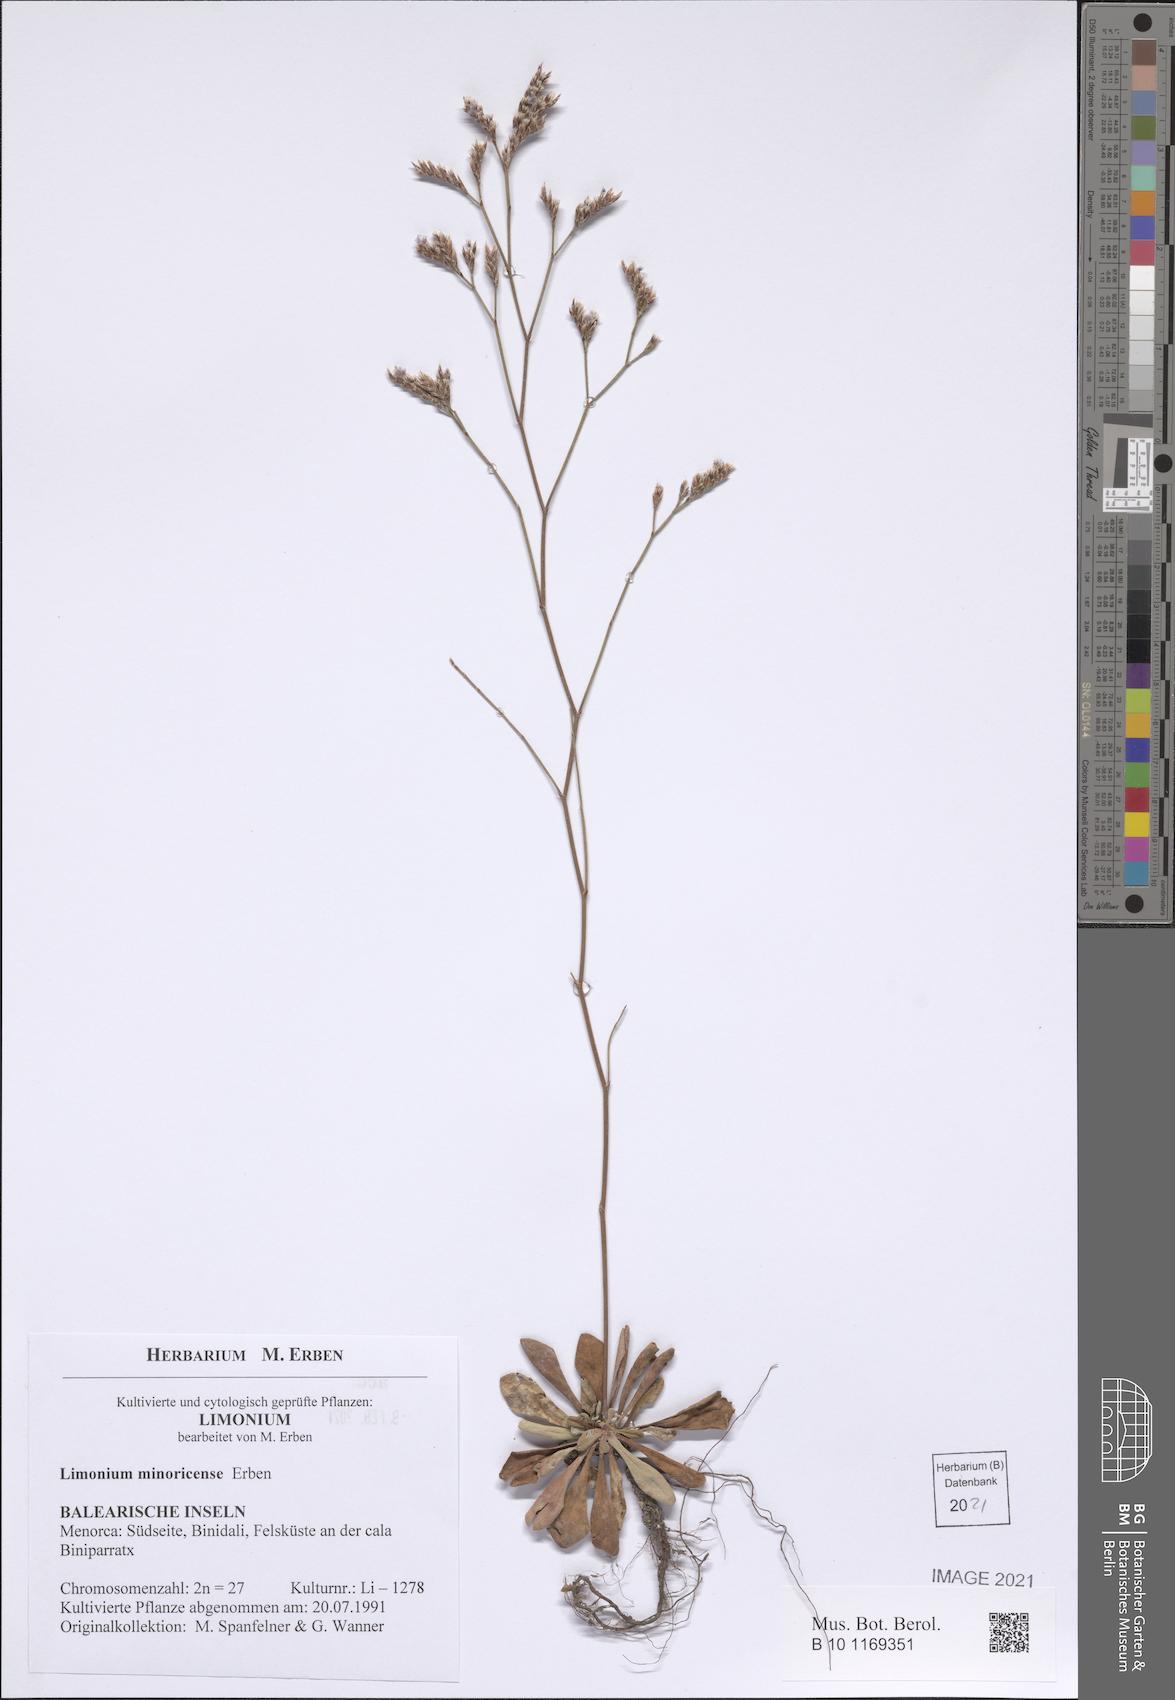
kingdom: Plantae
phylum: Tracheophyta
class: Magnoliopsida
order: Caryophyllales
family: Plumbaginaceae
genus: Limonium
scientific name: Limonium minoricense
